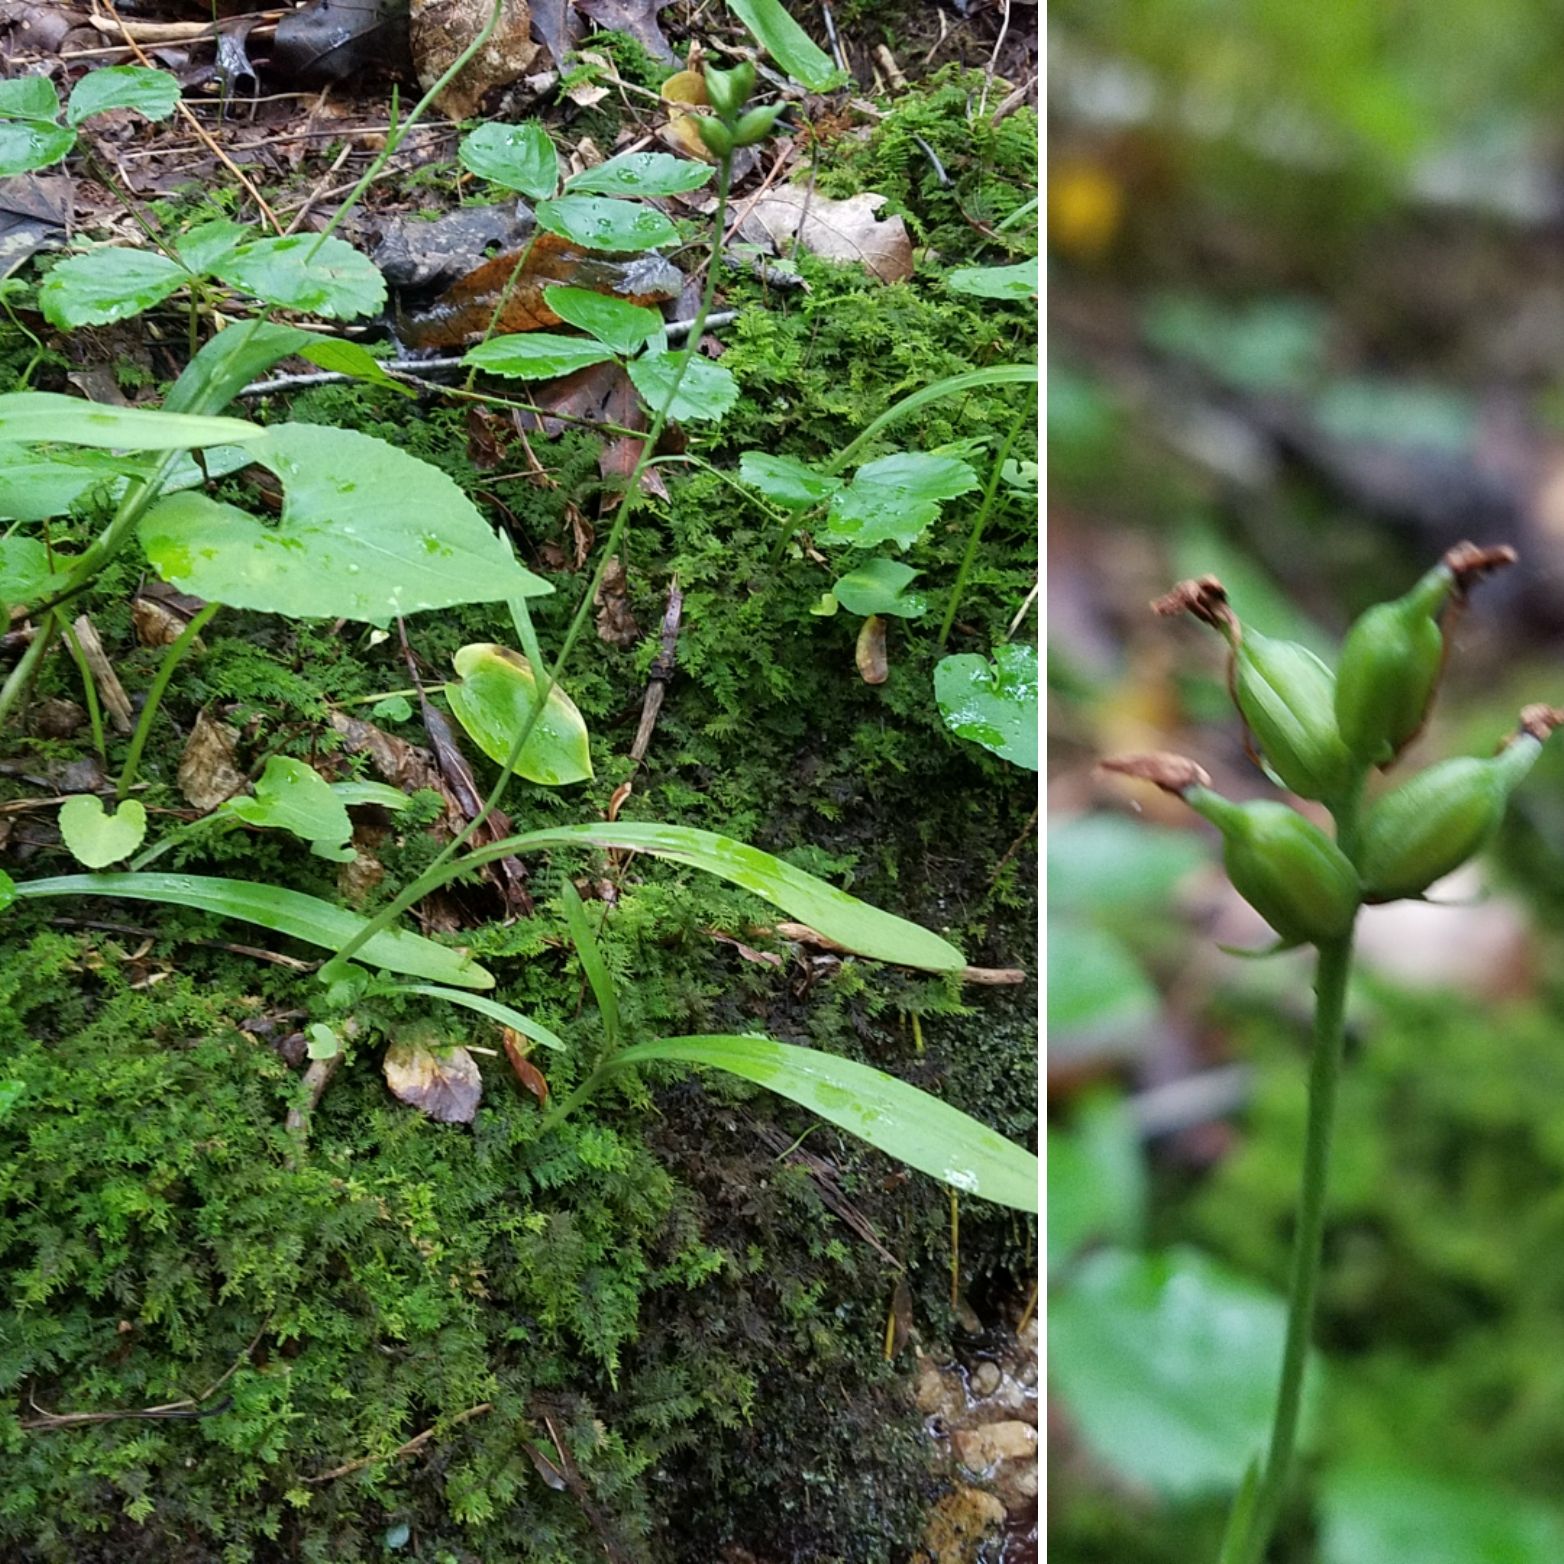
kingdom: Plantae
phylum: Tracheophyta
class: Liliopsida
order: Asparagales
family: Orchidaceae
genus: Platanthera
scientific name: Platanthera clavellata
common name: small green woodland orchid
